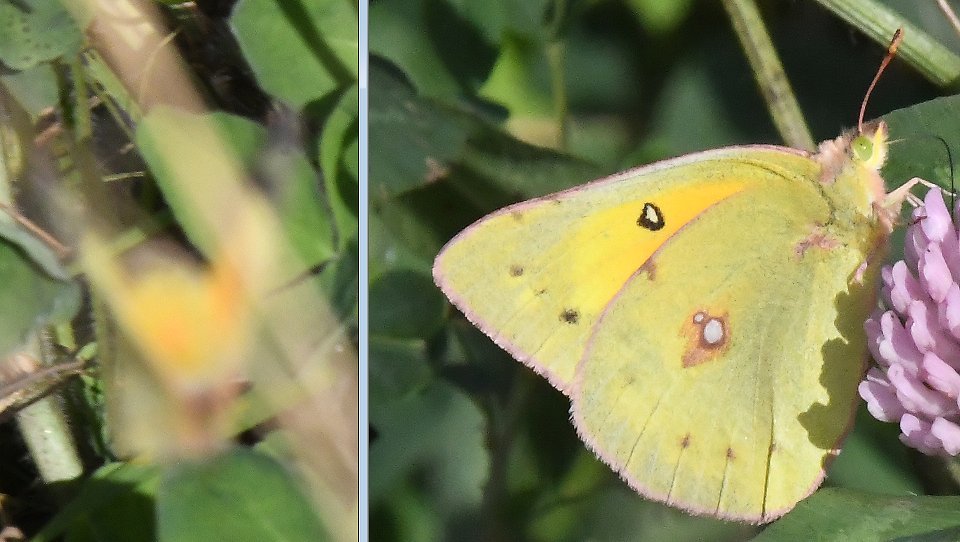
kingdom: Animalia
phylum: Arthropoda
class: Insecta
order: Lepidoptera
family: Pieridae
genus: Colias
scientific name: Colias eurytheme
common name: Orange Sulphur
